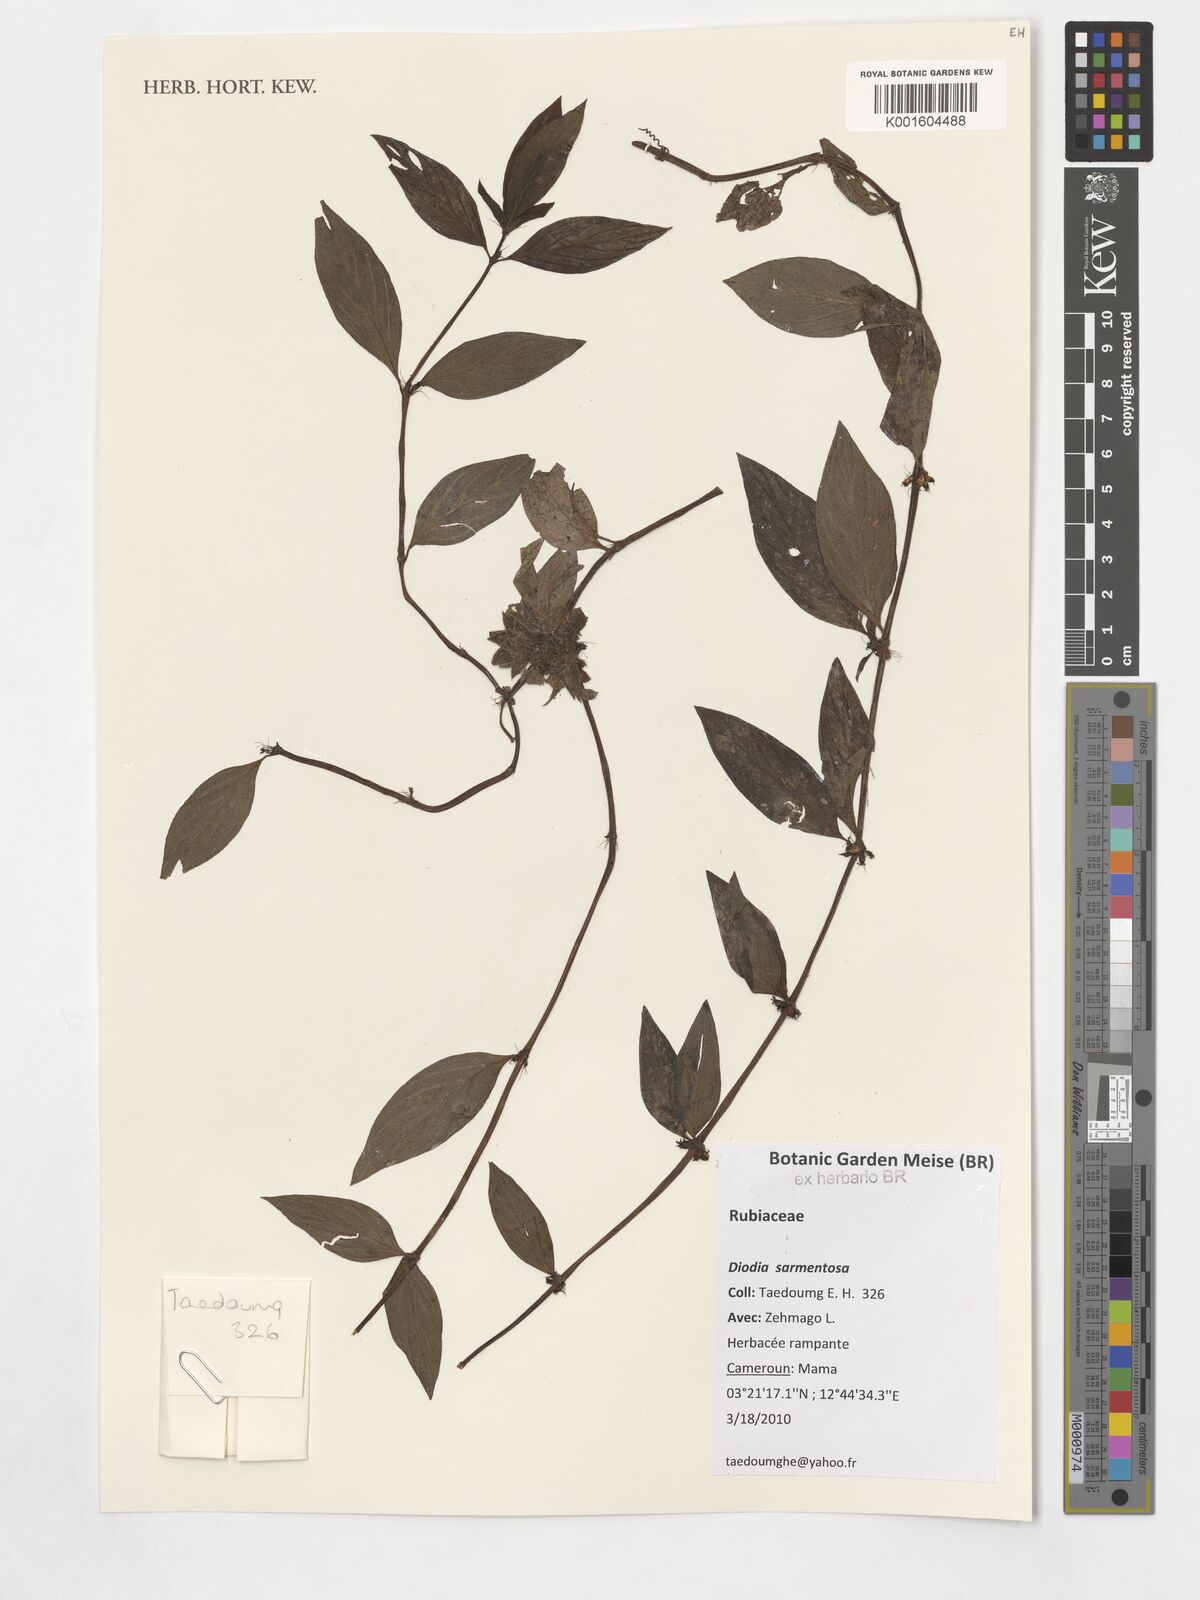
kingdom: Plantae
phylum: Tracheophyta
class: Magnoliopsida
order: Gentianales
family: Rubiaceae
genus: Hexasepalum
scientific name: Hexasepalum sarmentosum
